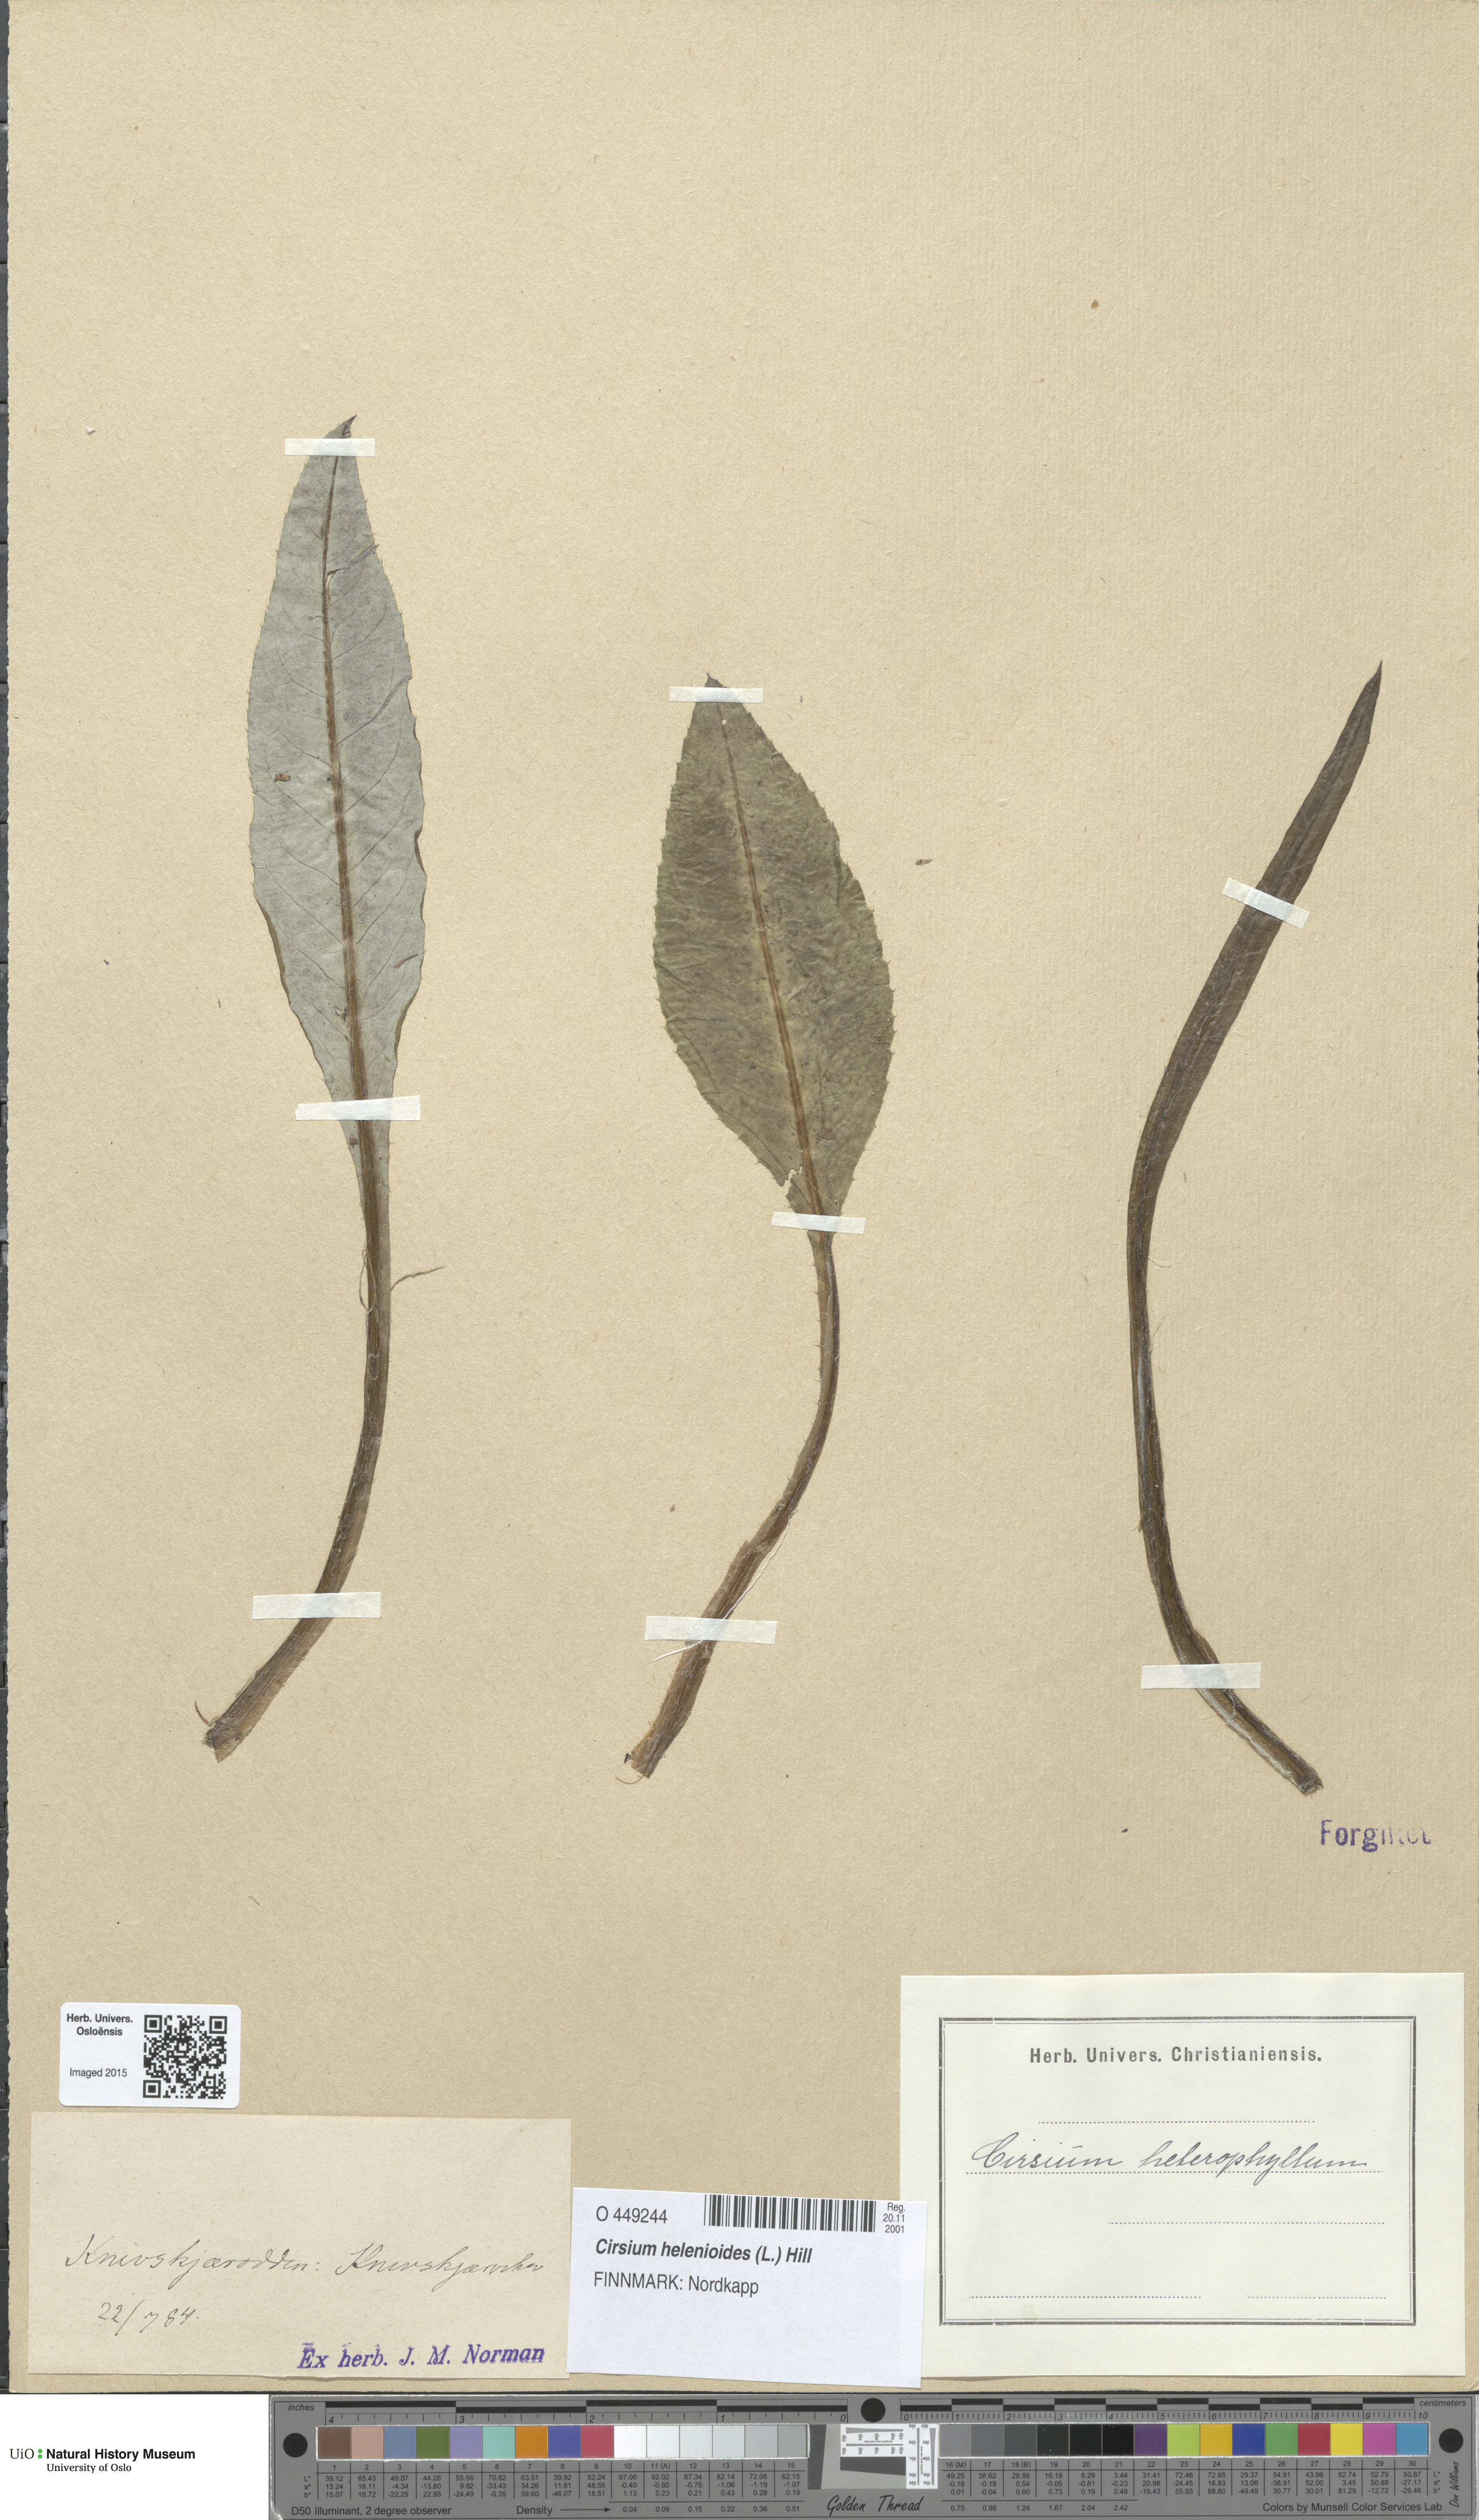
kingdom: Plantae
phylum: Tracheophyta
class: Magnoliopsida
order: Asterales
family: Asteraceae
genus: Cirsium
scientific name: Cirsium heterophyllum
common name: Melancholy thistle
